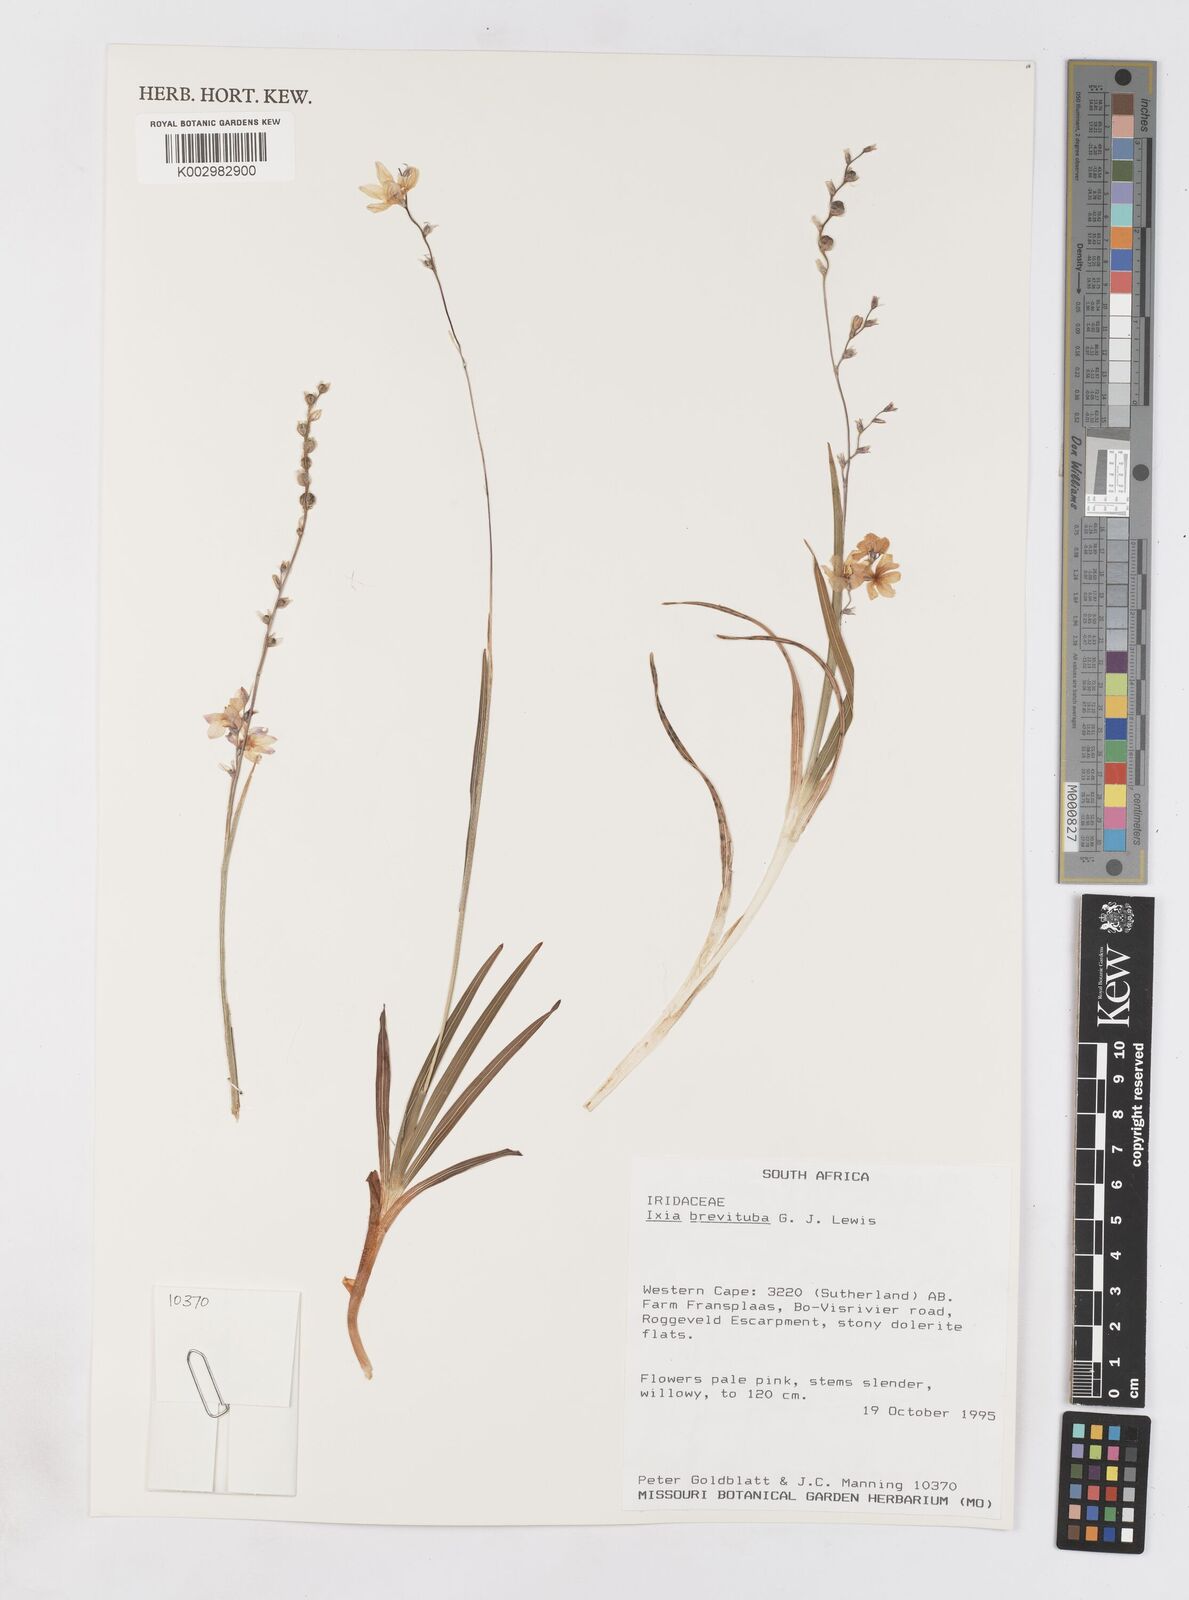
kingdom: Plantae
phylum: Tracheophyta
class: Liliopsida
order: Asparagales
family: Iridaceae
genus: Ixia
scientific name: Ixia brevituba
